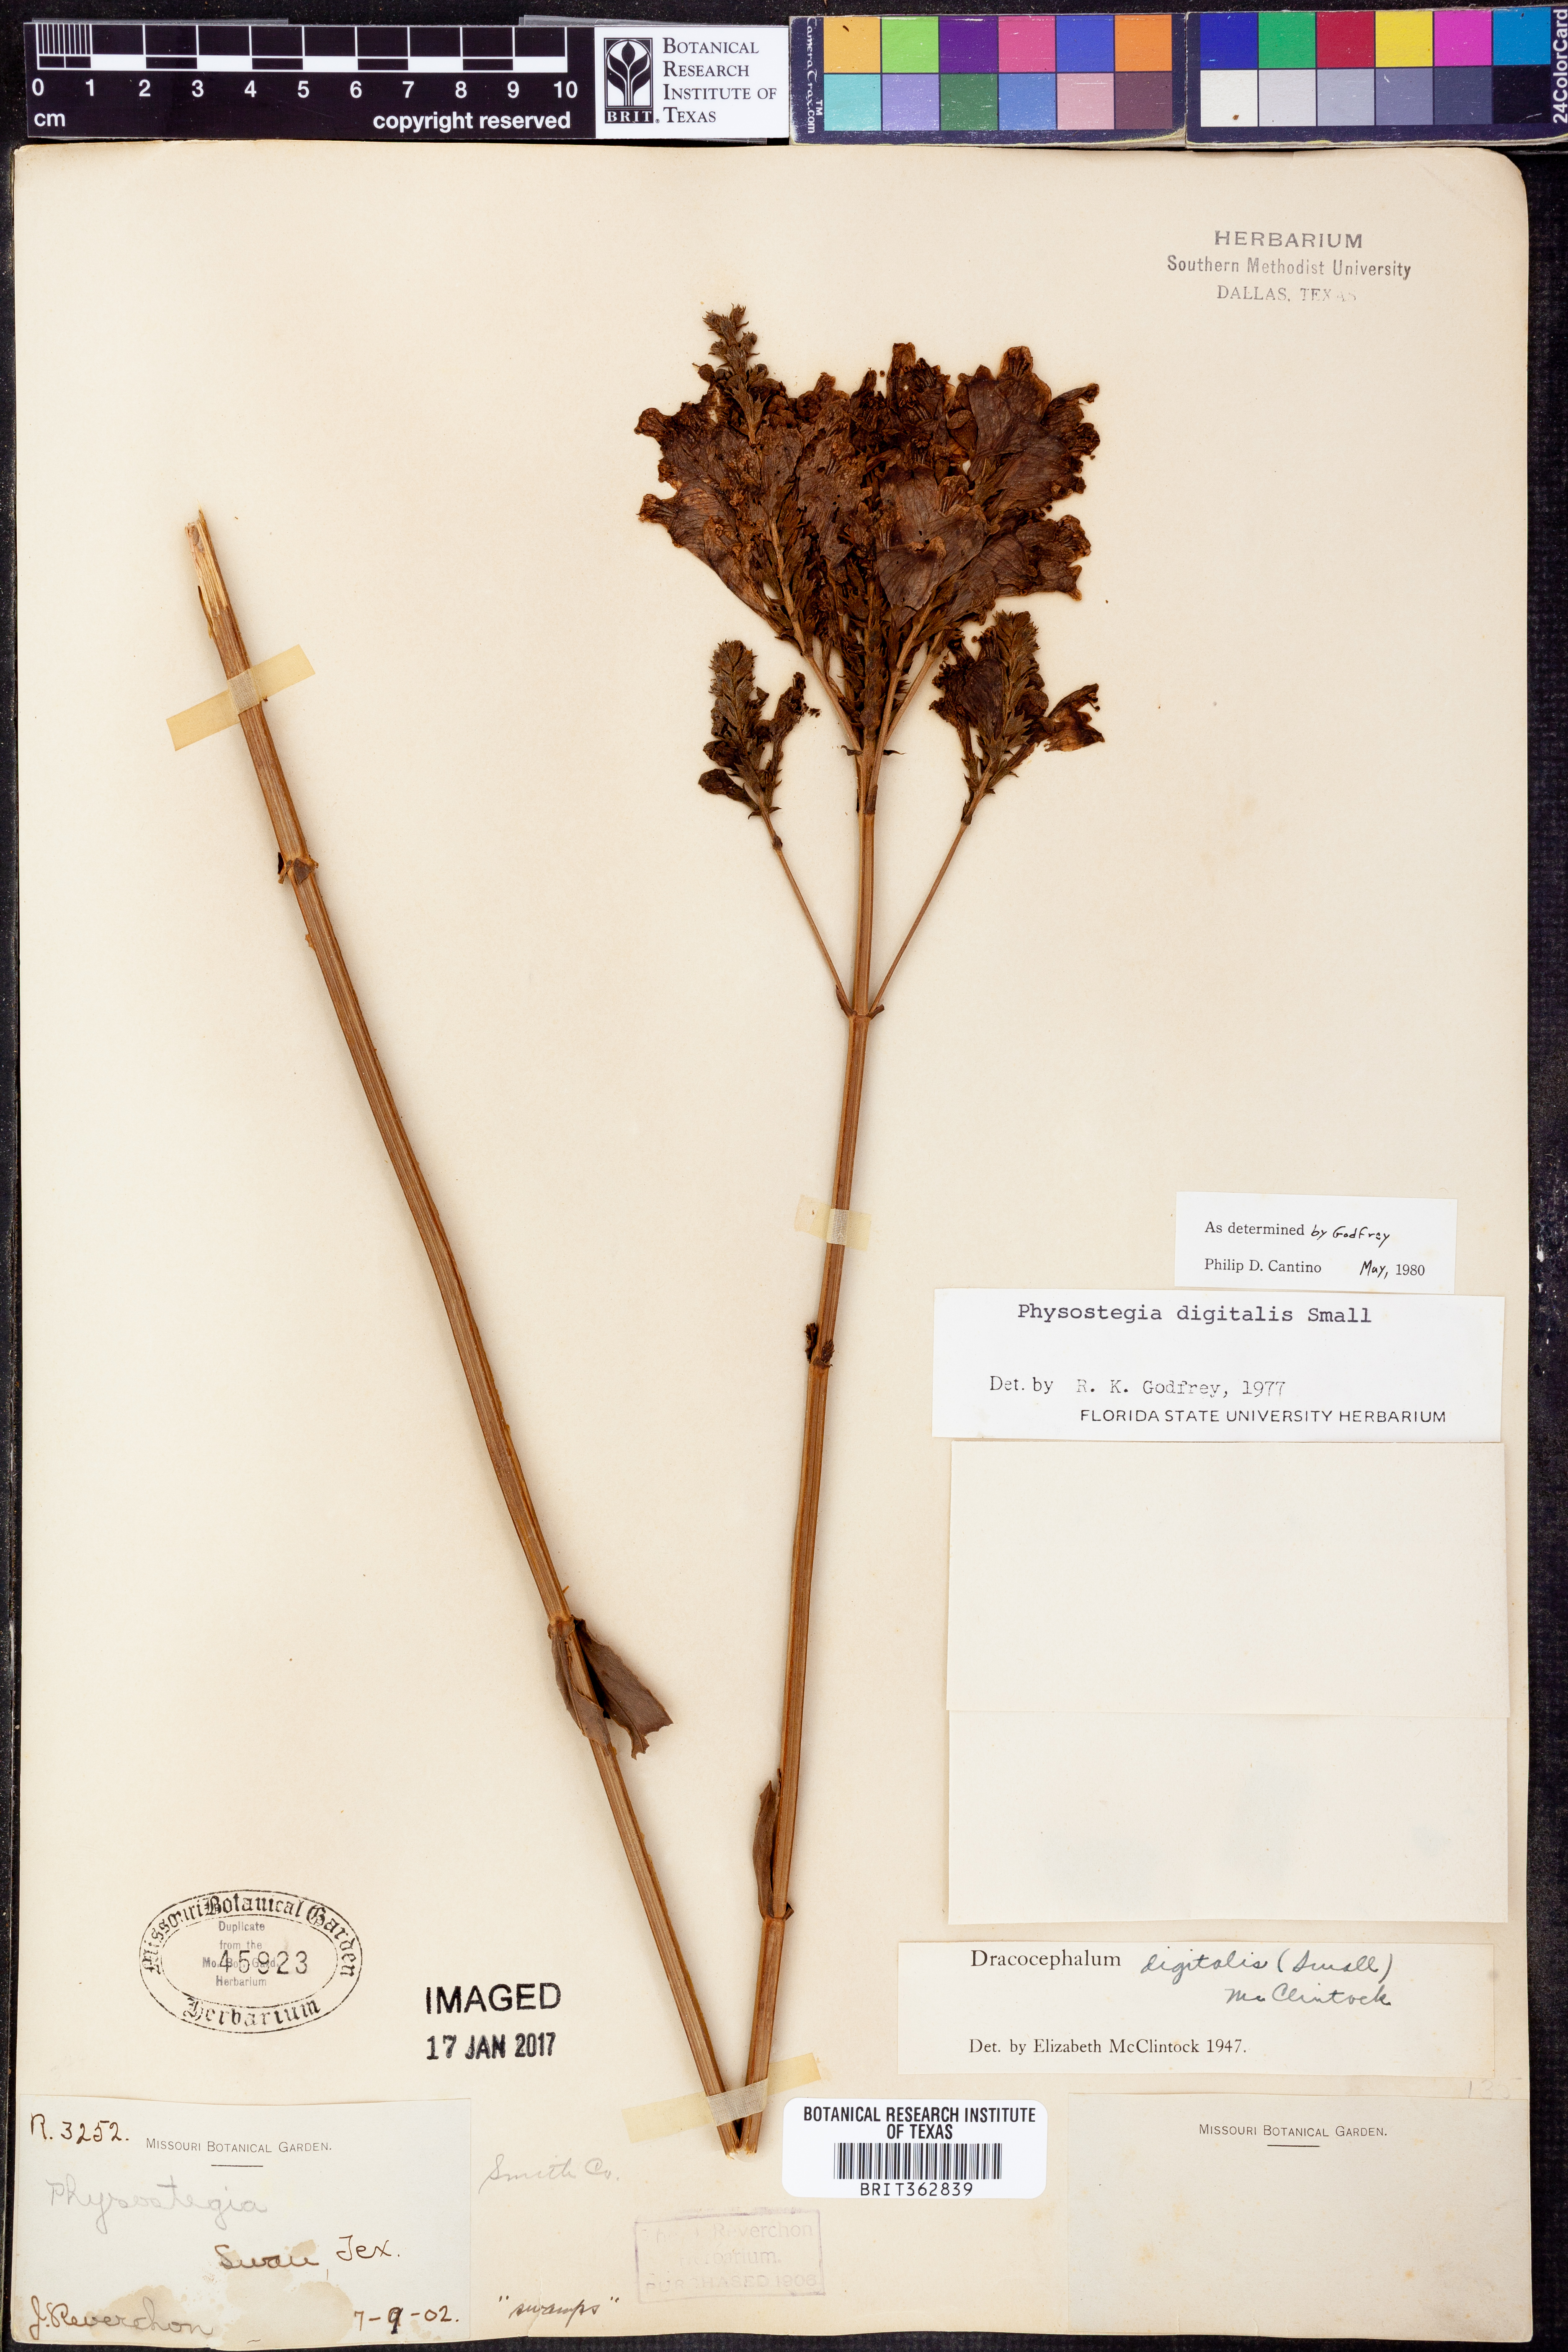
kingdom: Plantae
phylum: Tracheophyta
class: Magnoliopsida
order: Lamiales
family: Lamiaceae
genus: Physostegia
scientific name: Physostegia digitalis
